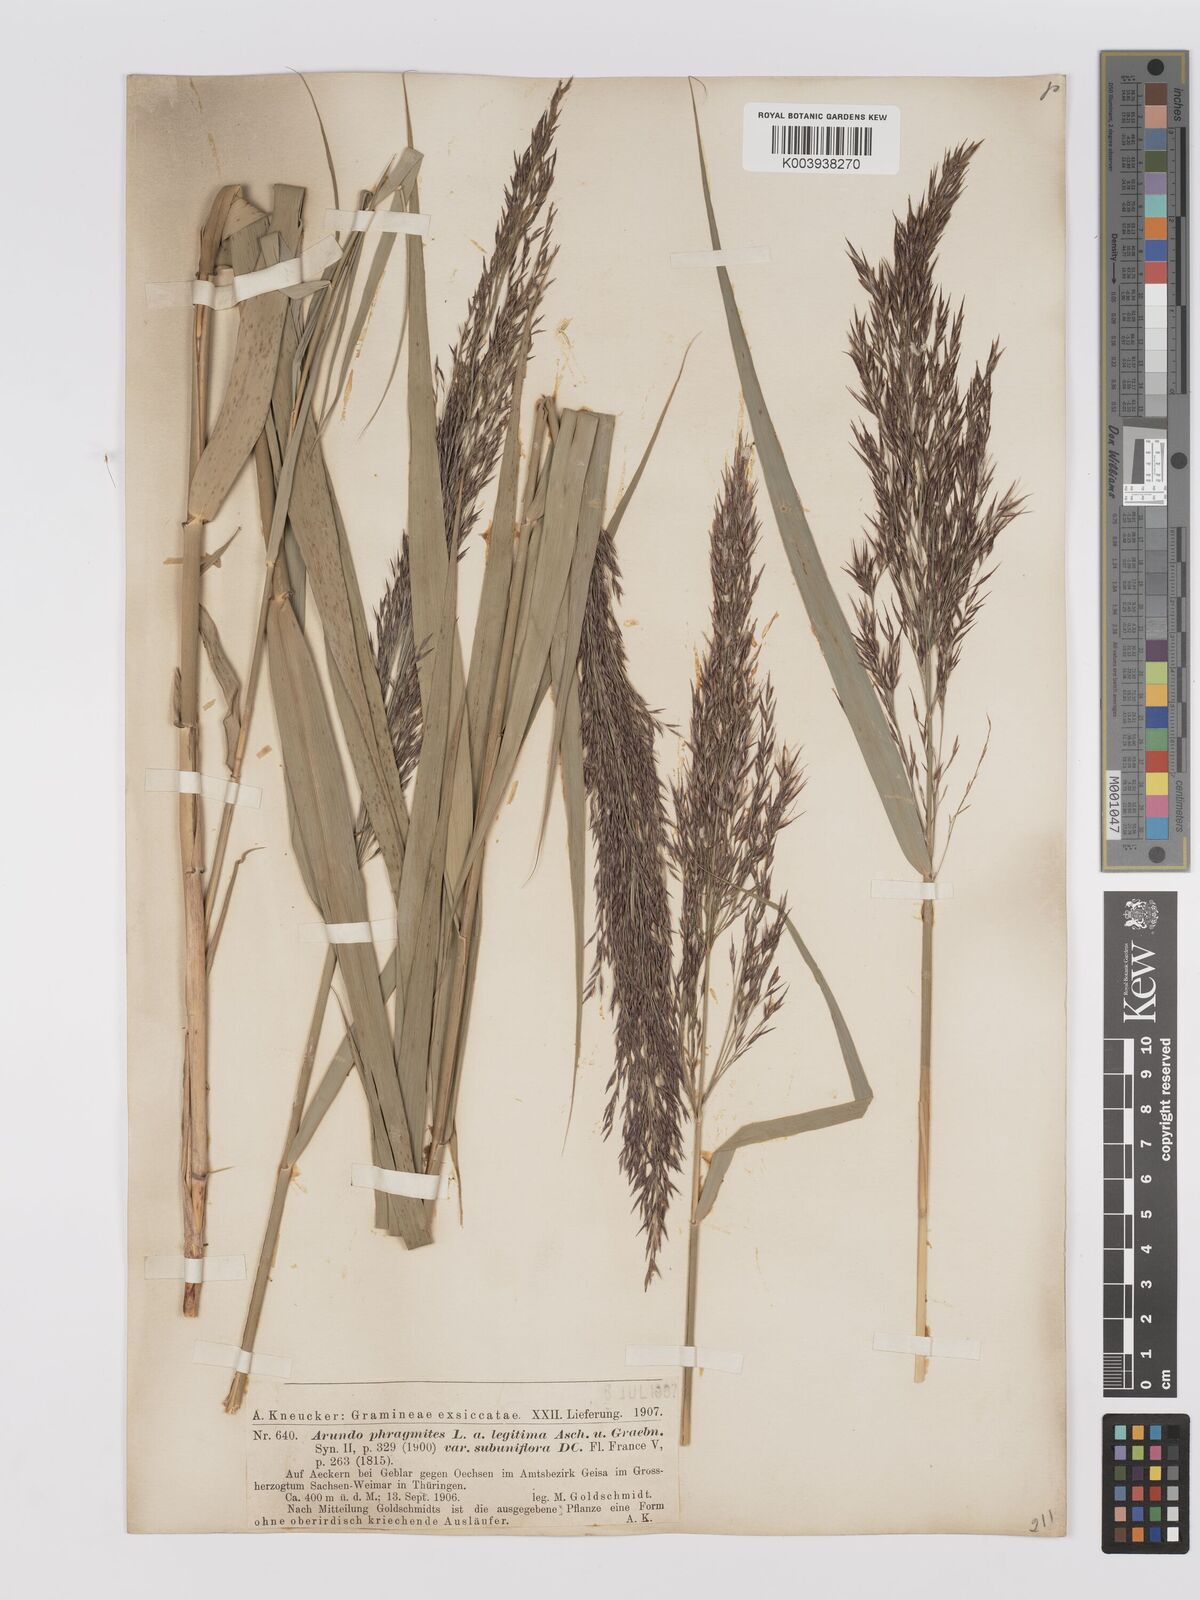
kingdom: Plantae
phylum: Tracheophyta
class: Liliopsida
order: Poales
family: Poaceae
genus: Phragmites
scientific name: Phragmites australis
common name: Common reed
